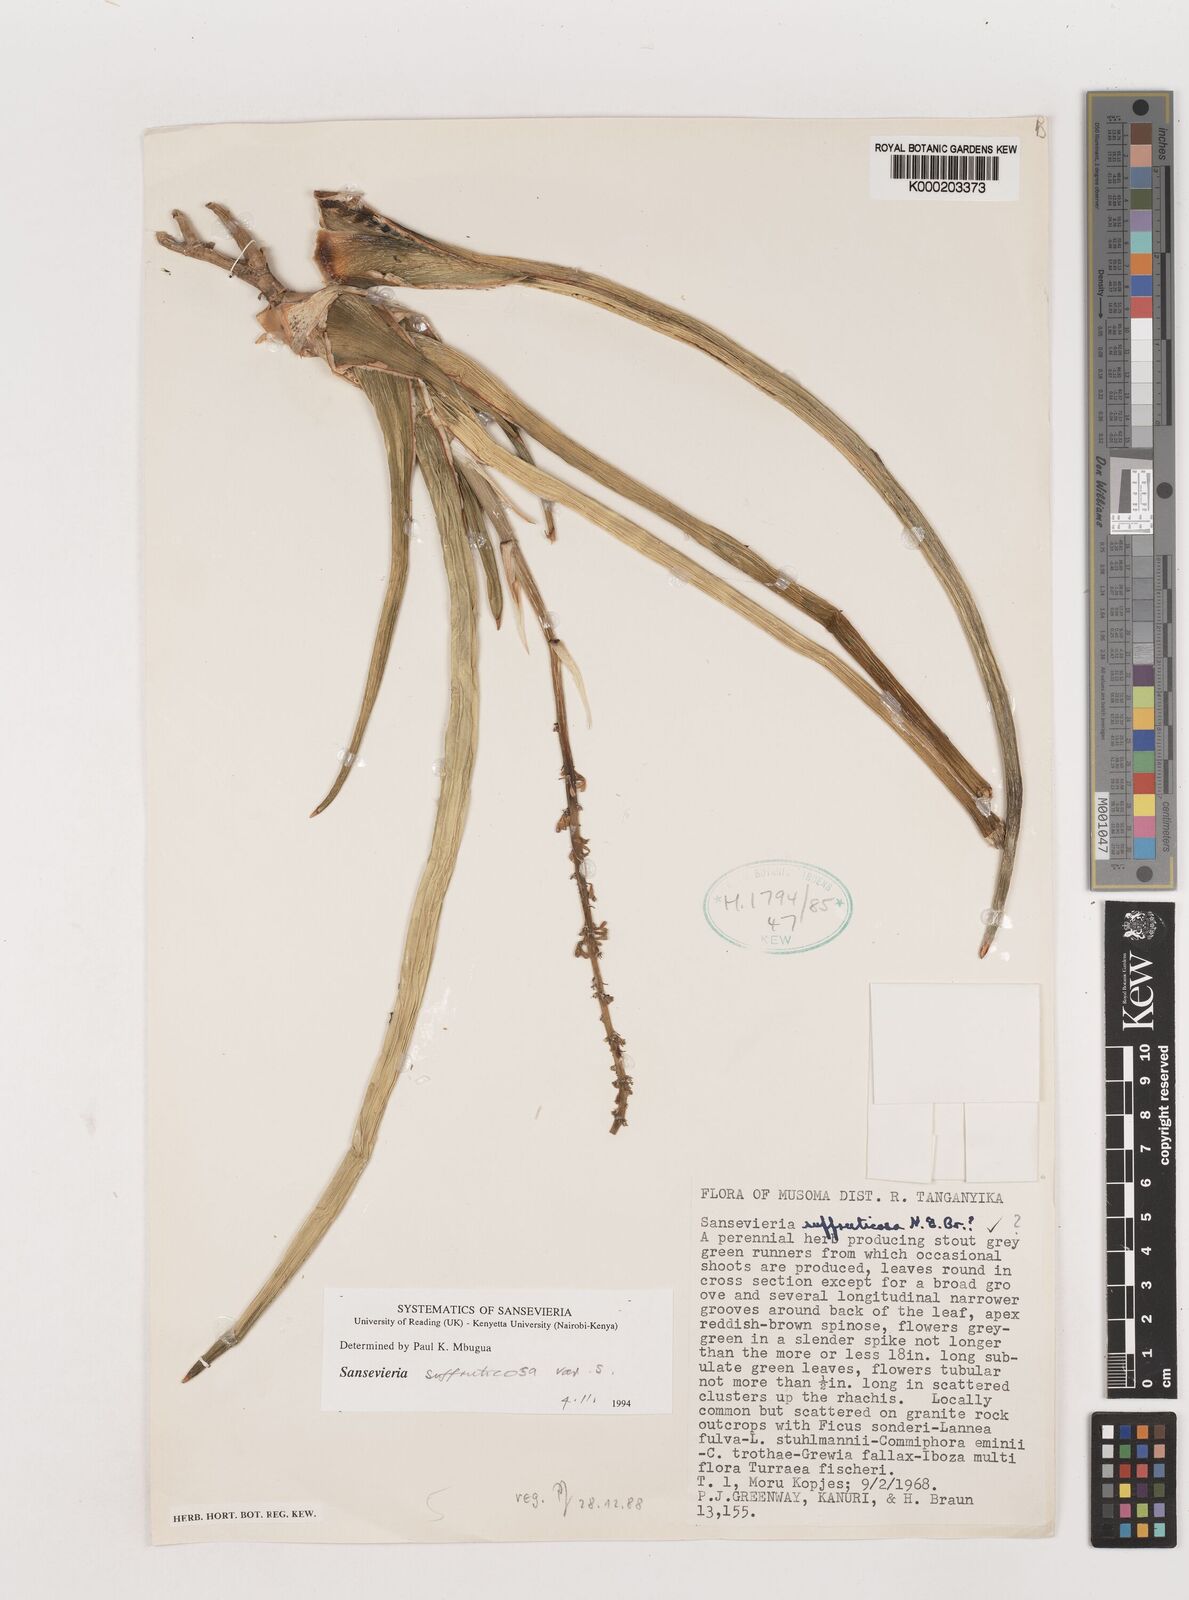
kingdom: Plantae
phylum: Tracheophyta
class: Liliopsida
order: Asparagales
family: Asparagaceae
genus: Dracaena
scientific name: Dracaena suffruticosa
